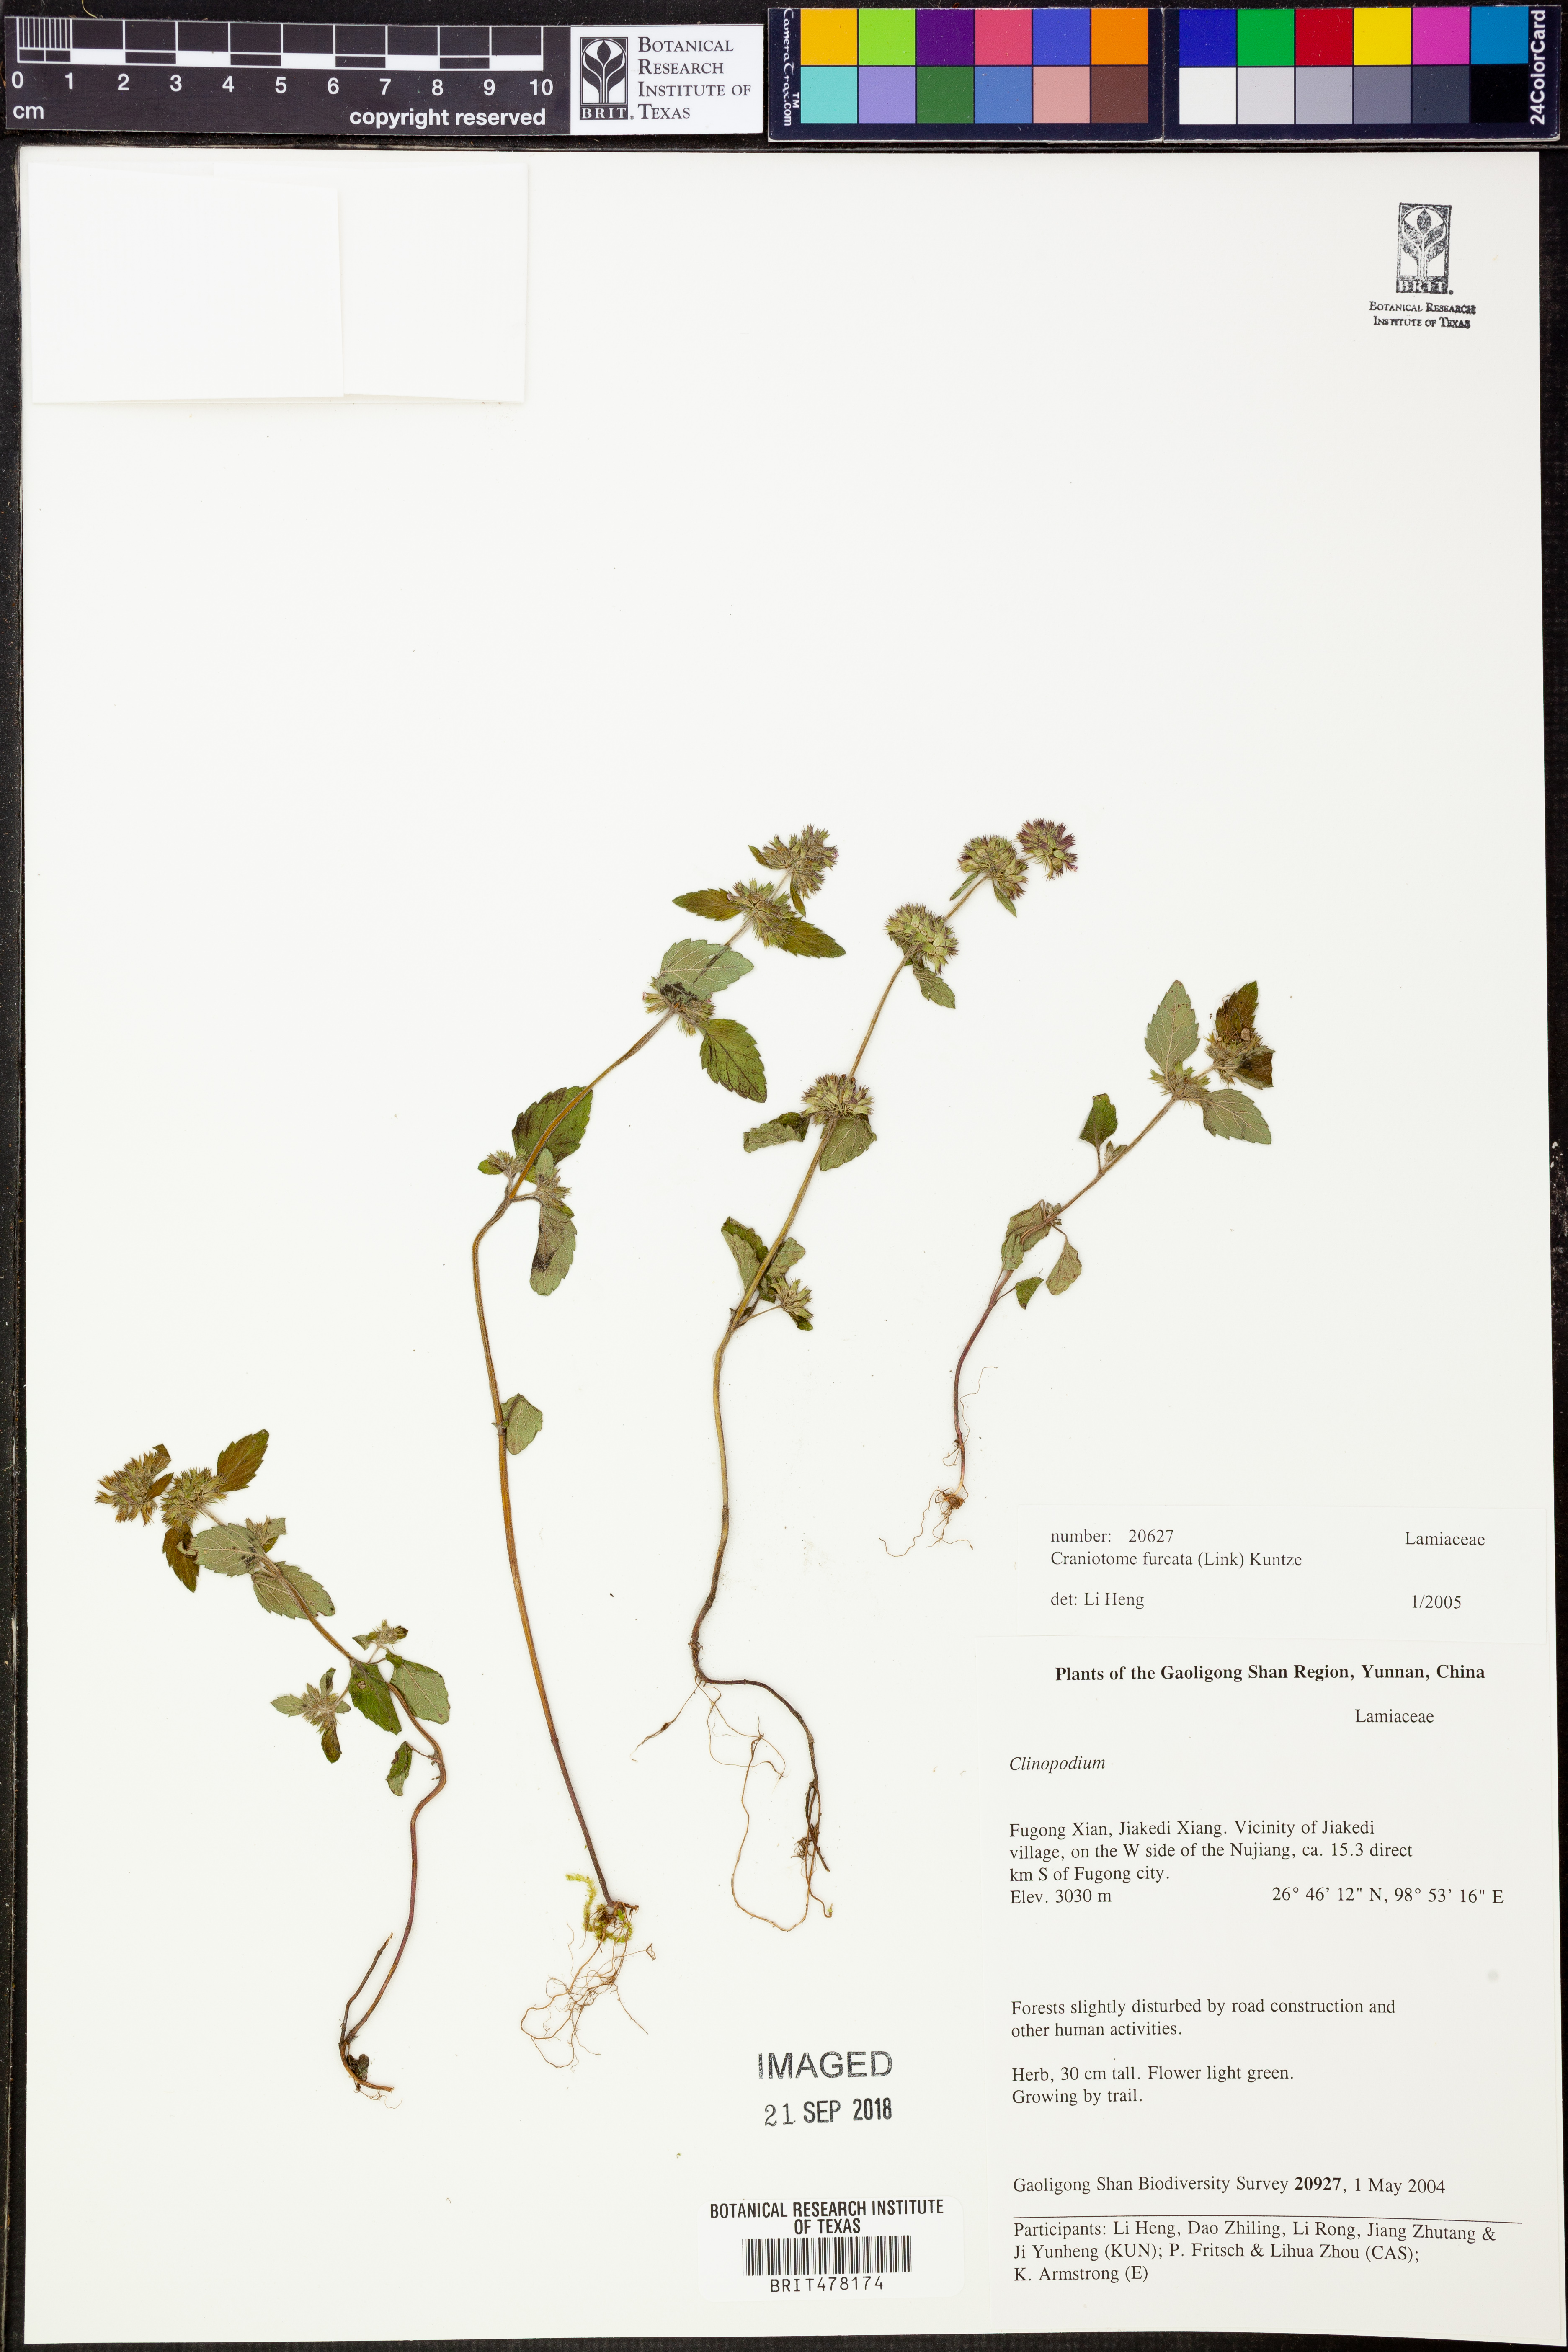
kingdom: Plantae
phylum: Tracheophyta
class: Magnoliopsida
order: Lamiales
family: Lamiaceae
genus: Hyptis
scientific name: Hyptis radicans
